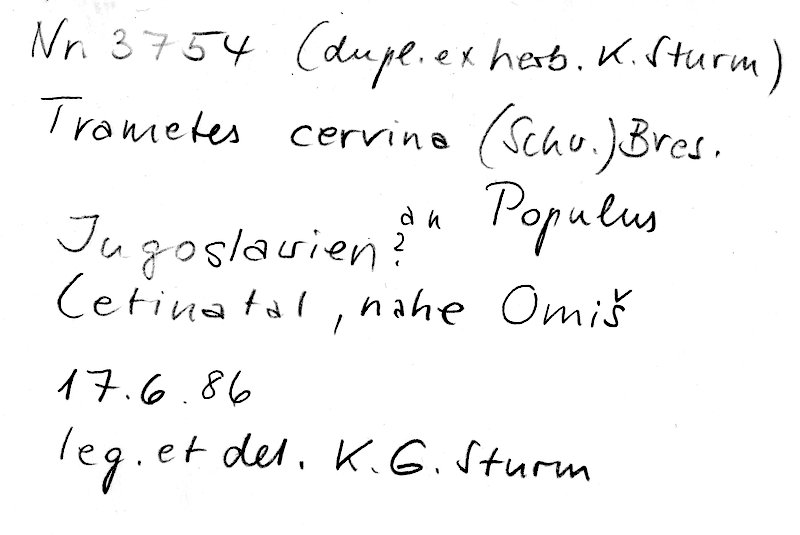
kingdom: Fungi
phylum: Basidiomycota
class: Agaricomycetes
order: Polyporales
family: Irpicaceae
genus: Trametopsis
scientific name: Trametopsis cervina
